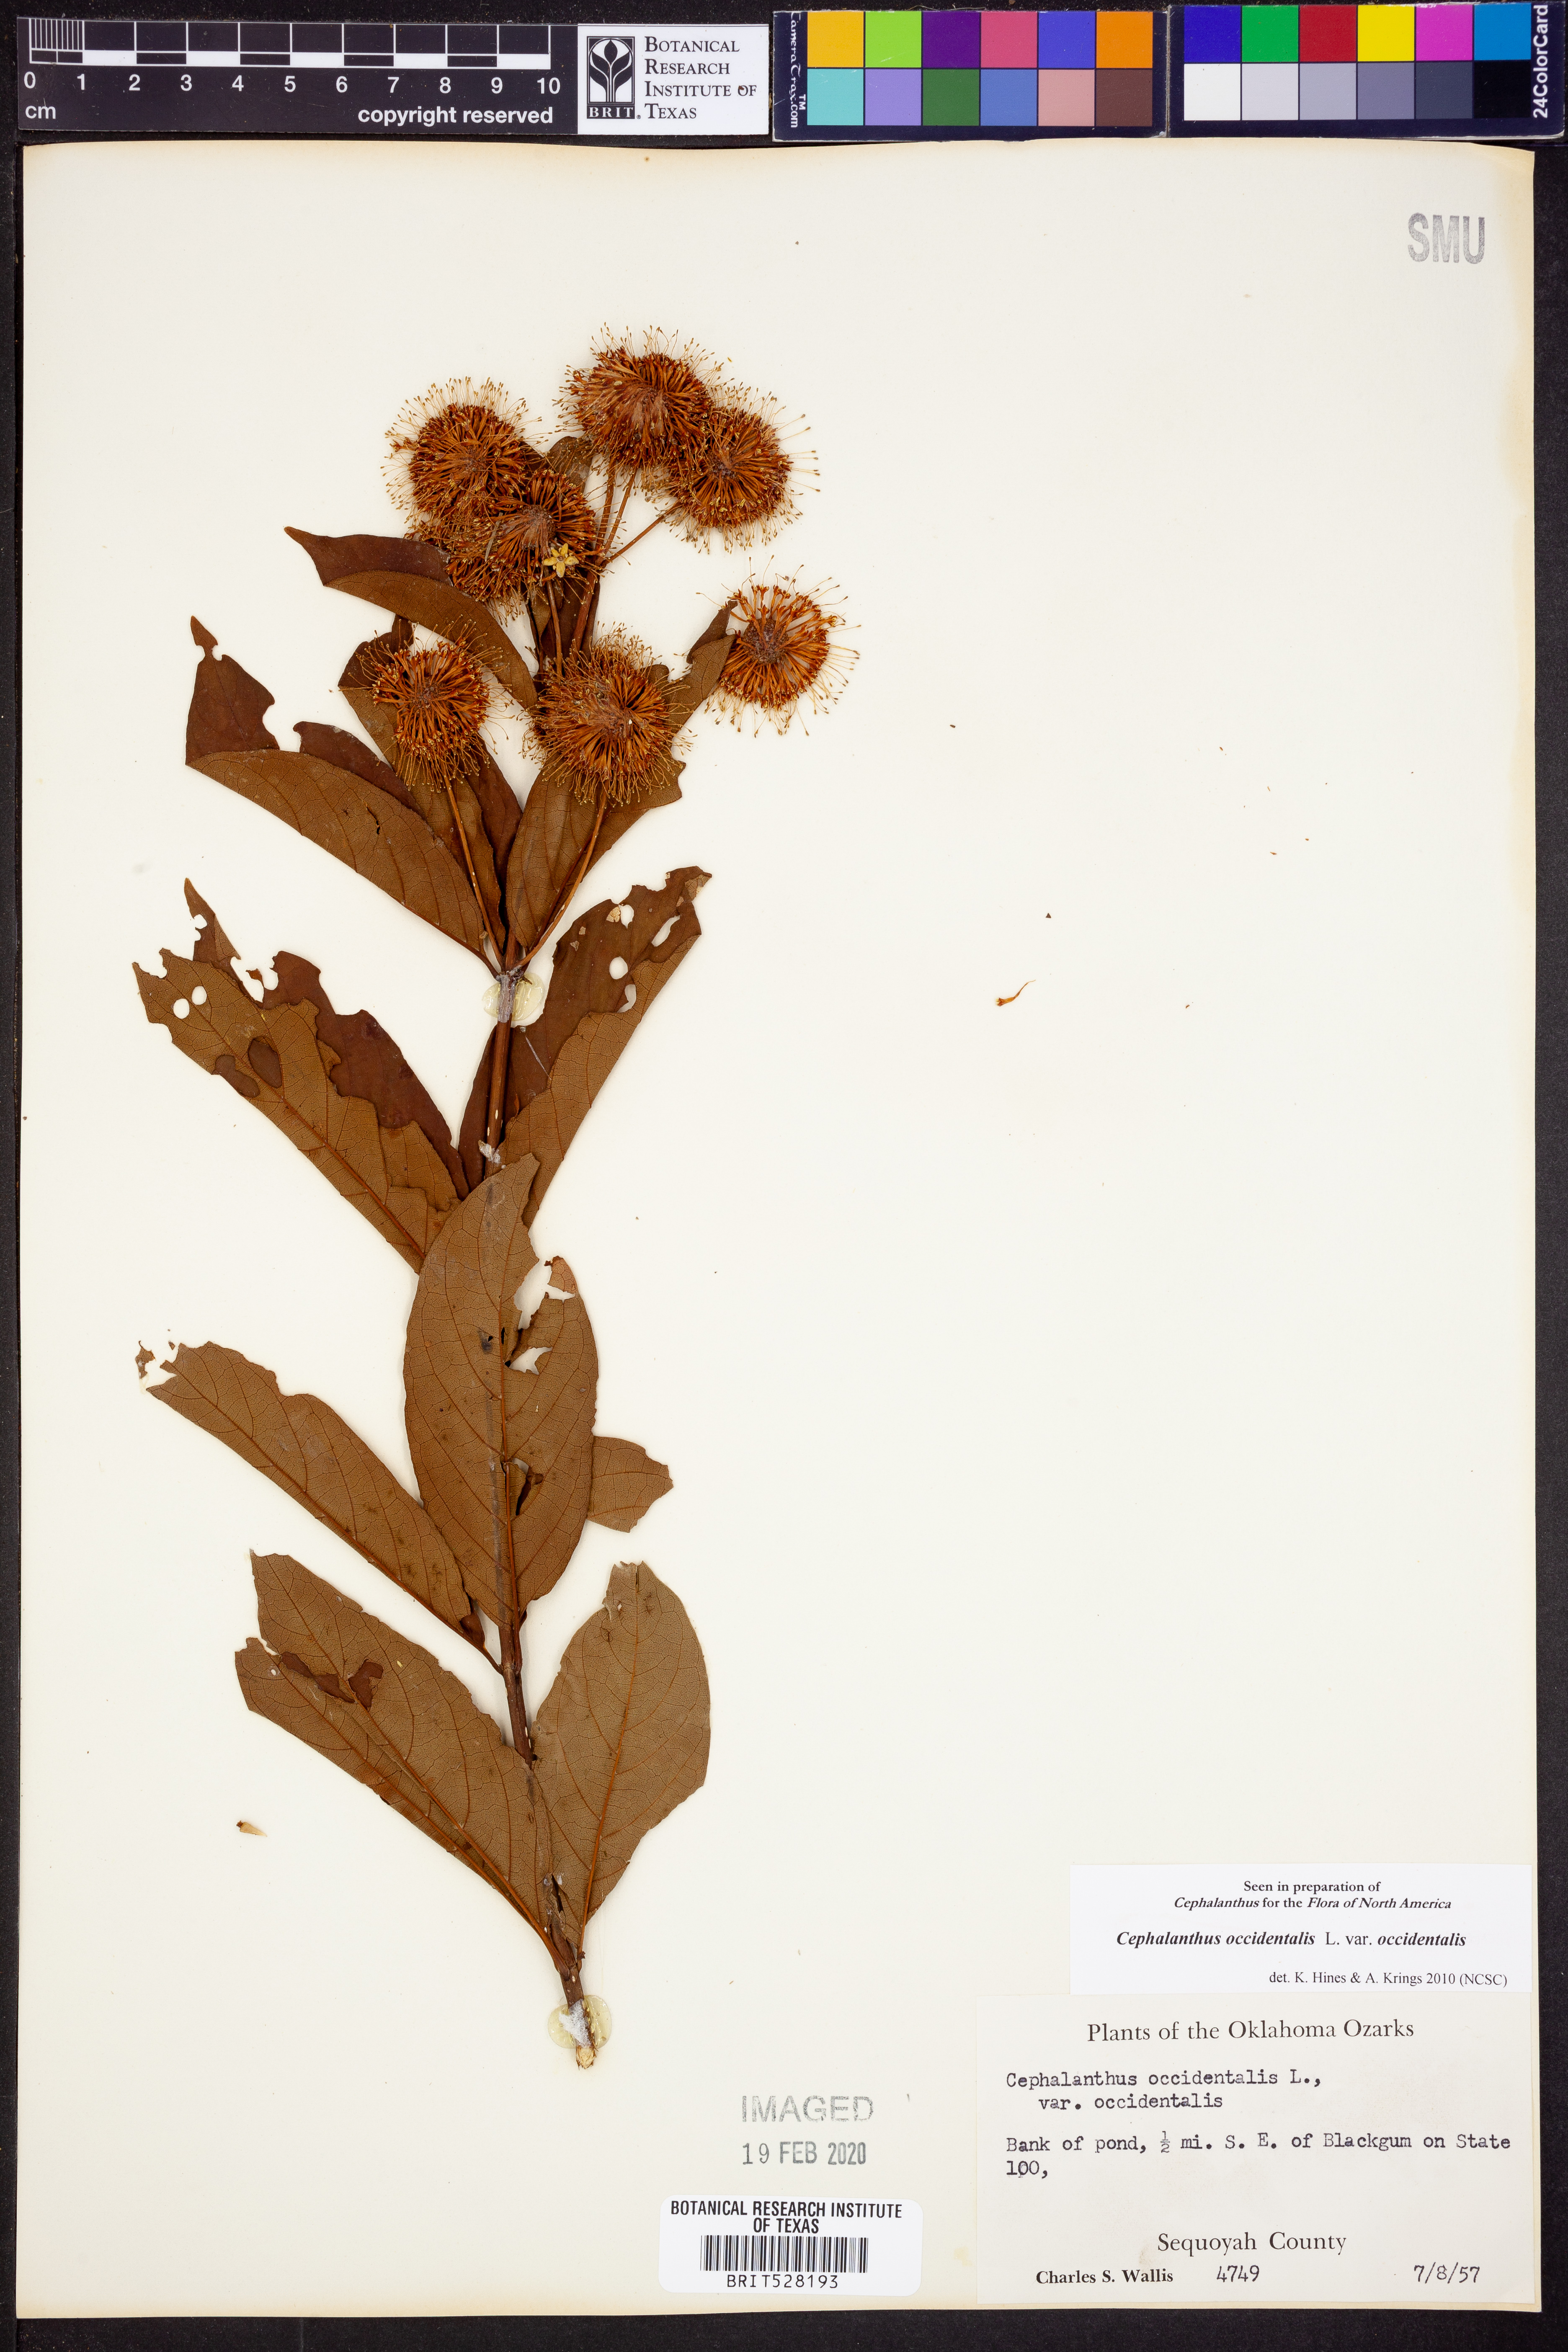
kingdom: Plantae
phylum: Tracheophyta
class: Magnoliopsida
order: Gentianales
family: Rubiaceae
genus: Cephalanthus
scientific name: Cephalanthus occidentalis
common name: Button-willow
